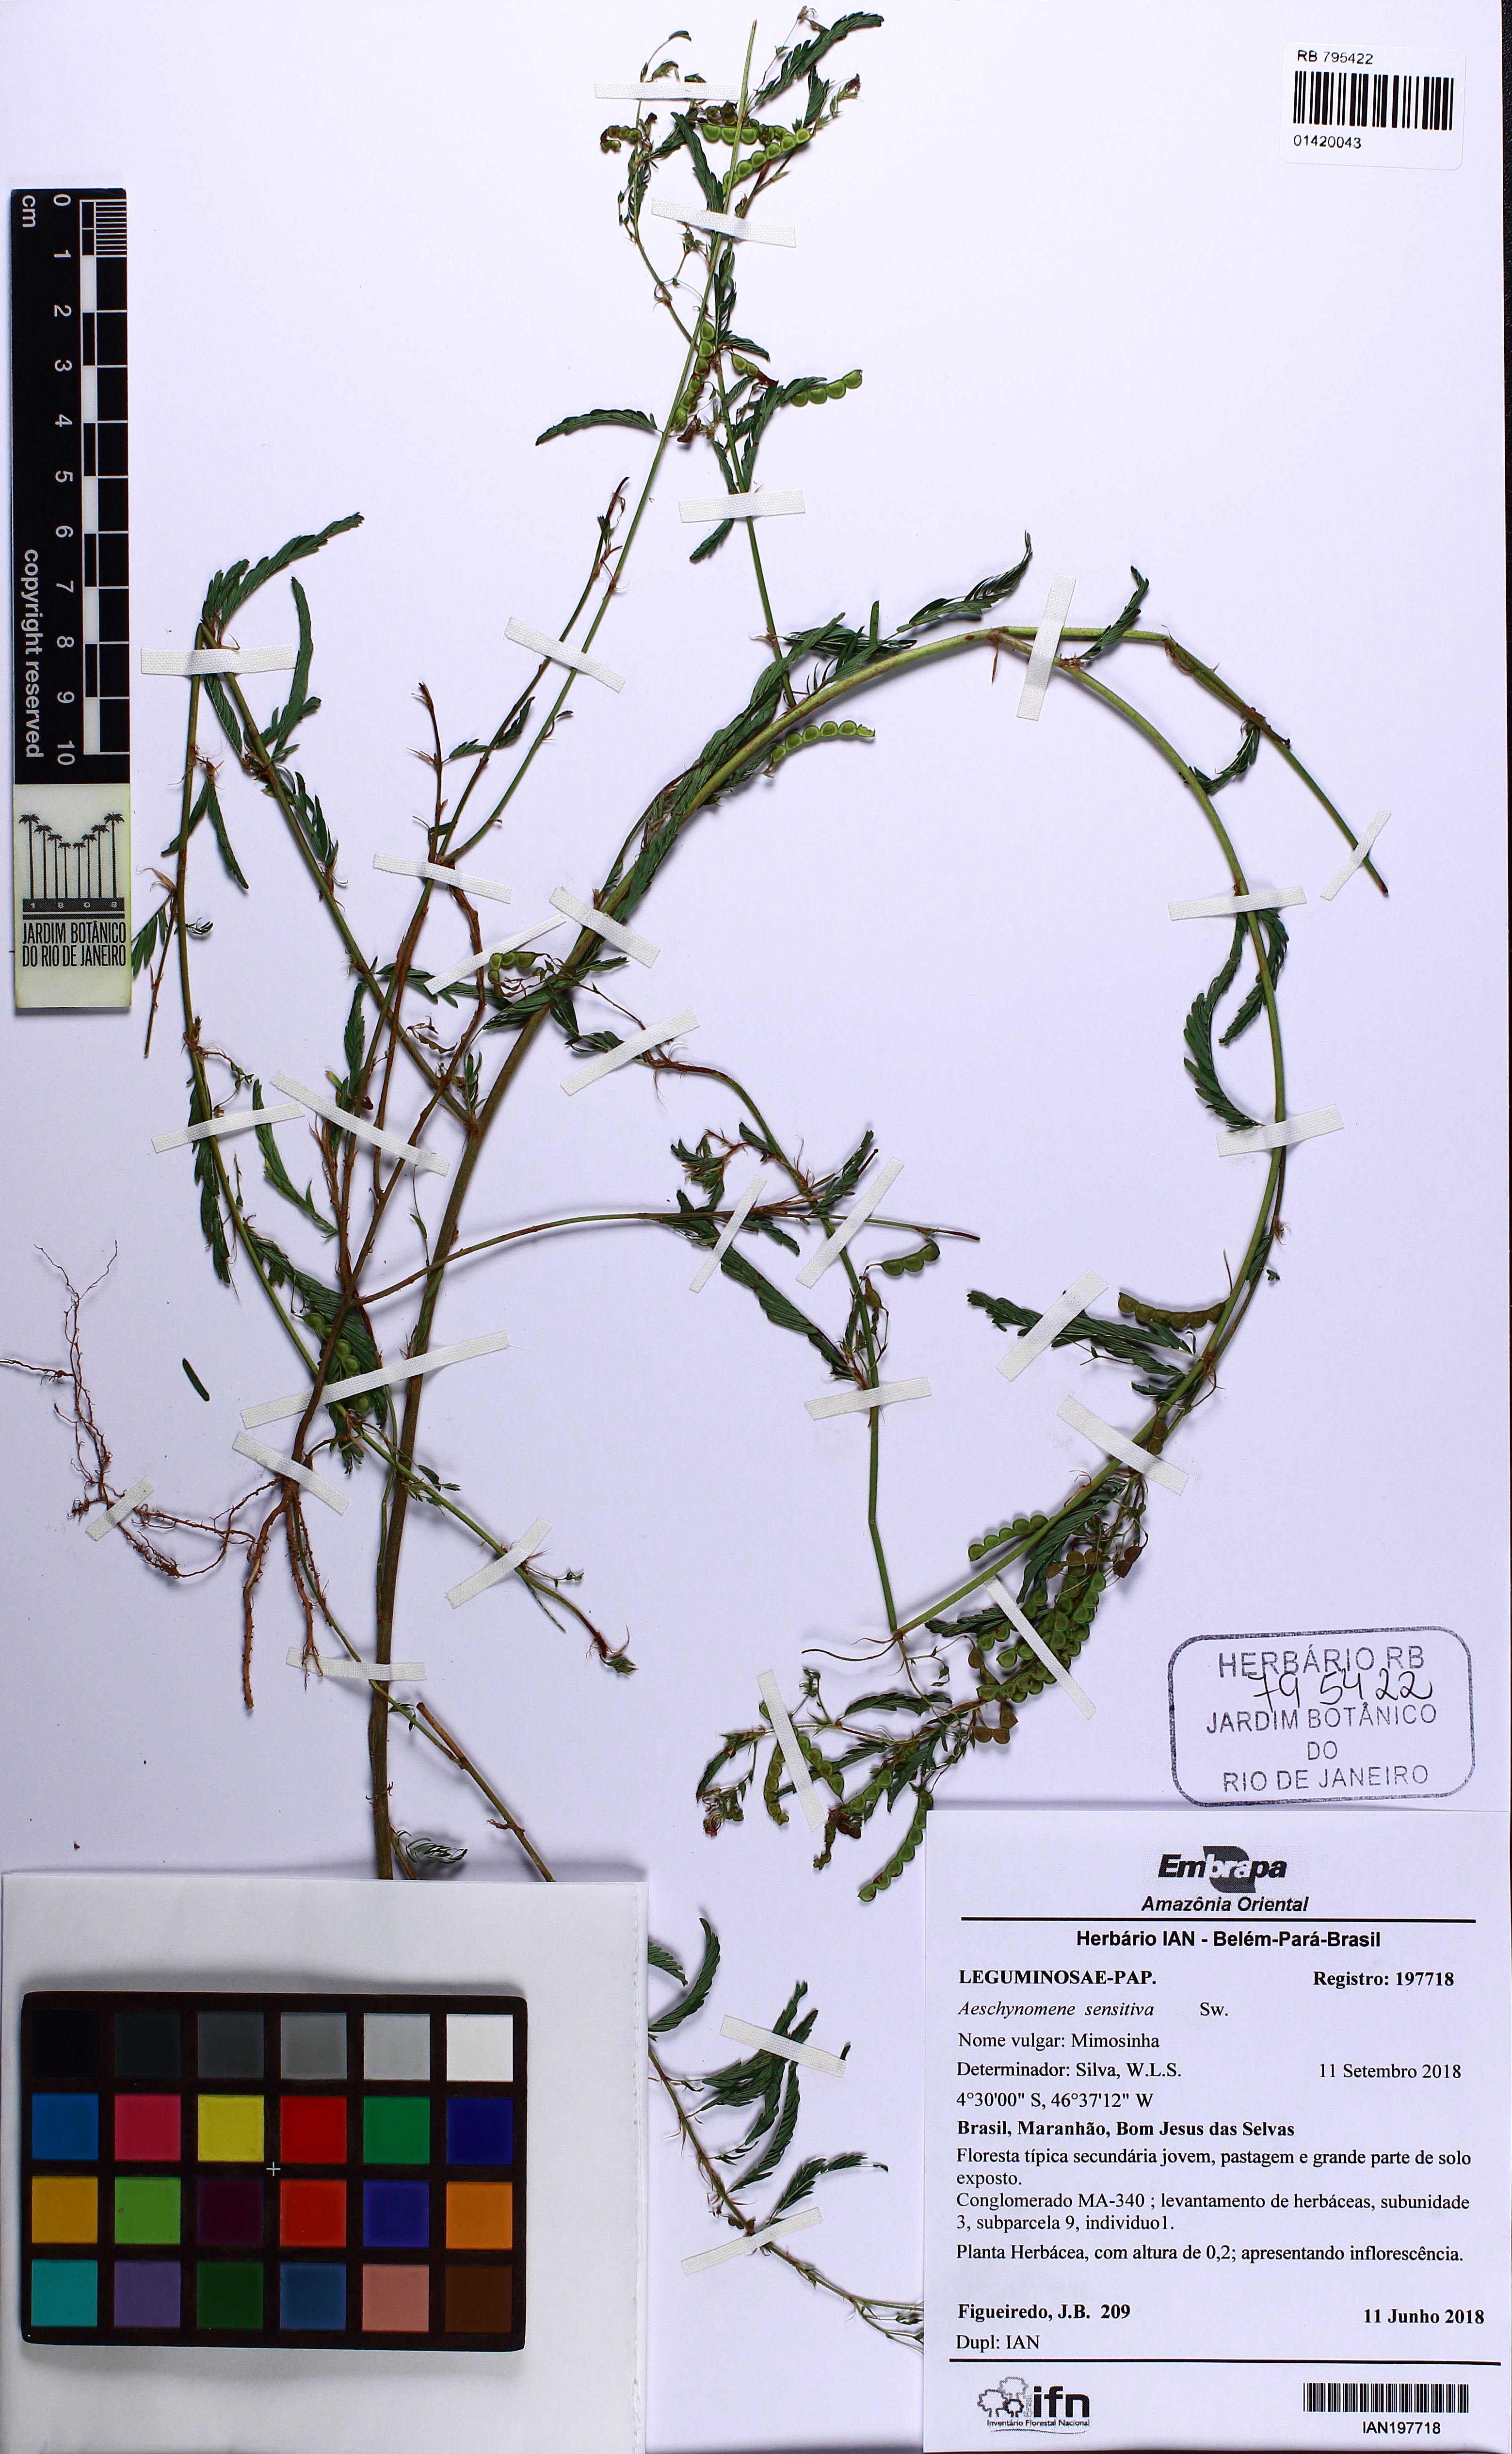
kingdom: Plantae
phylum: Tracheophyta
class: Magnoliopsida
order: Fabales
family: Fabaceae
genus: Aeschynomene
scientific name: Aeschynomene sensitiva
